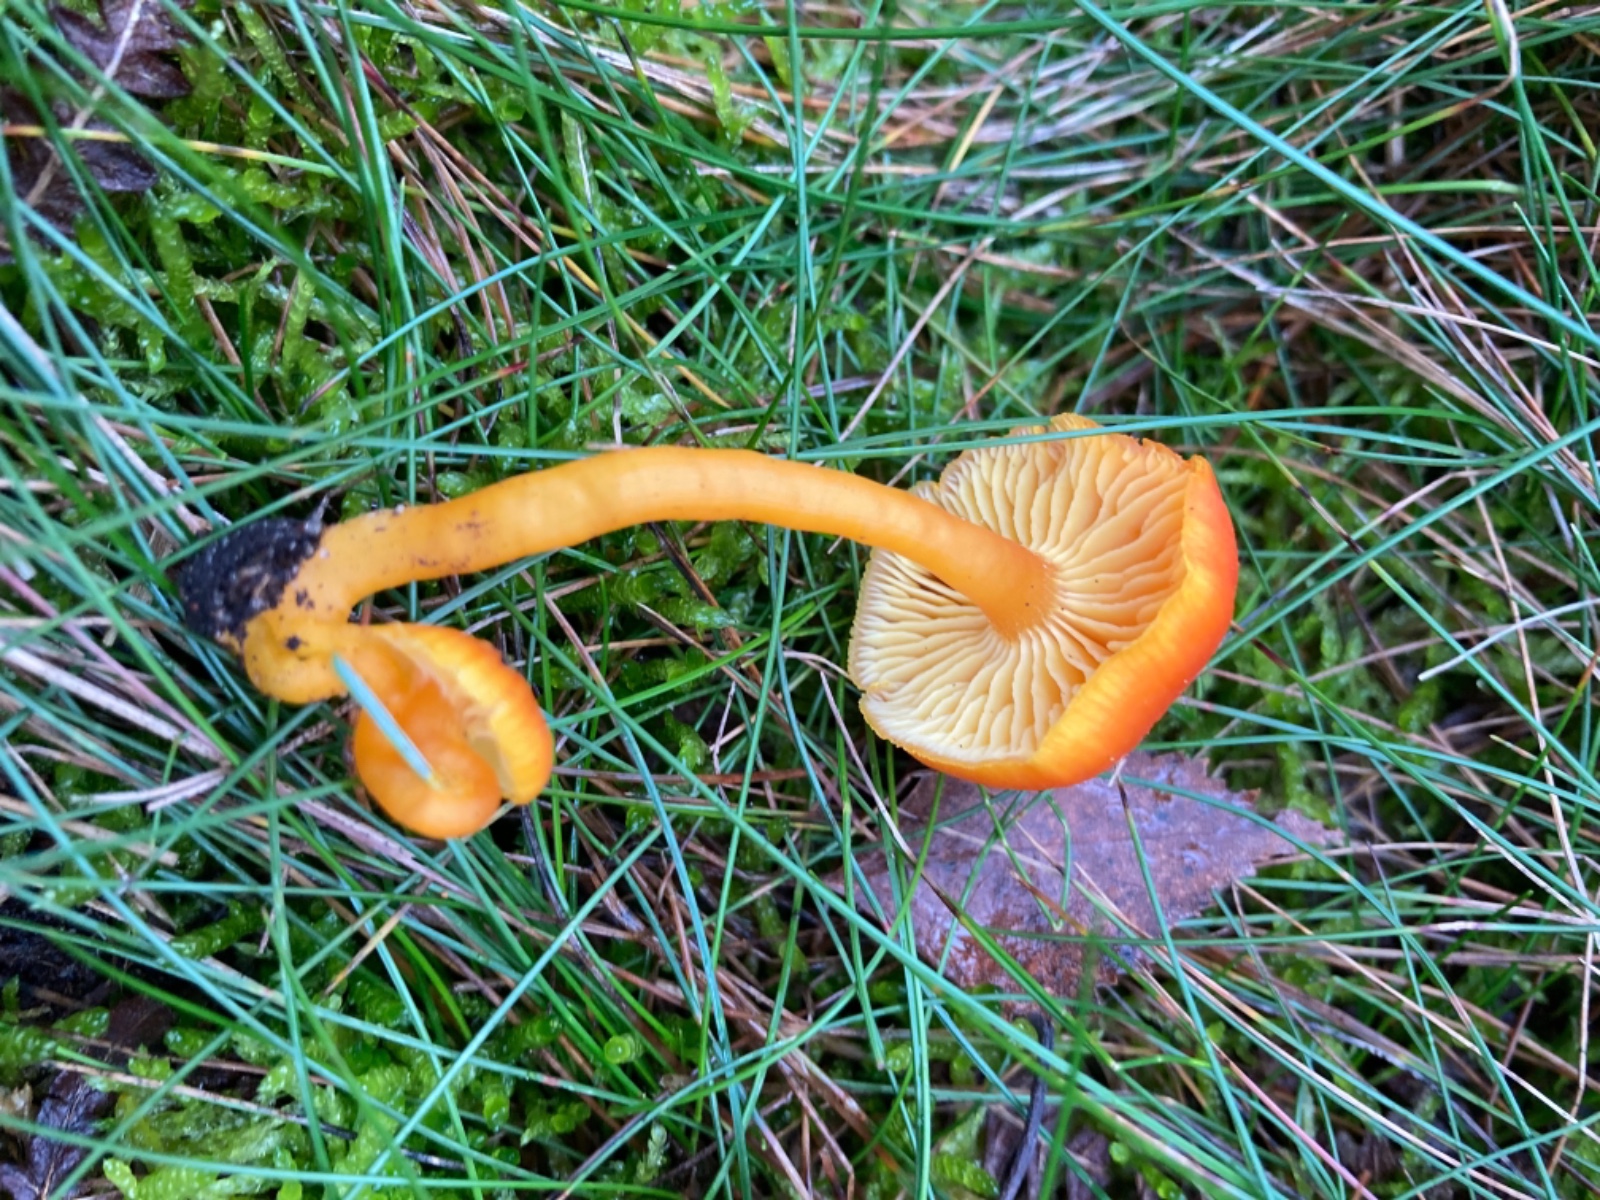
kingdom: Fungi
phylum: Basidiomycota
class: Agaricomycetes
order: Agaricales
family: Hygrophoraceae
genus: Hygrocybe
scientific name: Hygrocybe miniata
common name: mønje-vokshat
